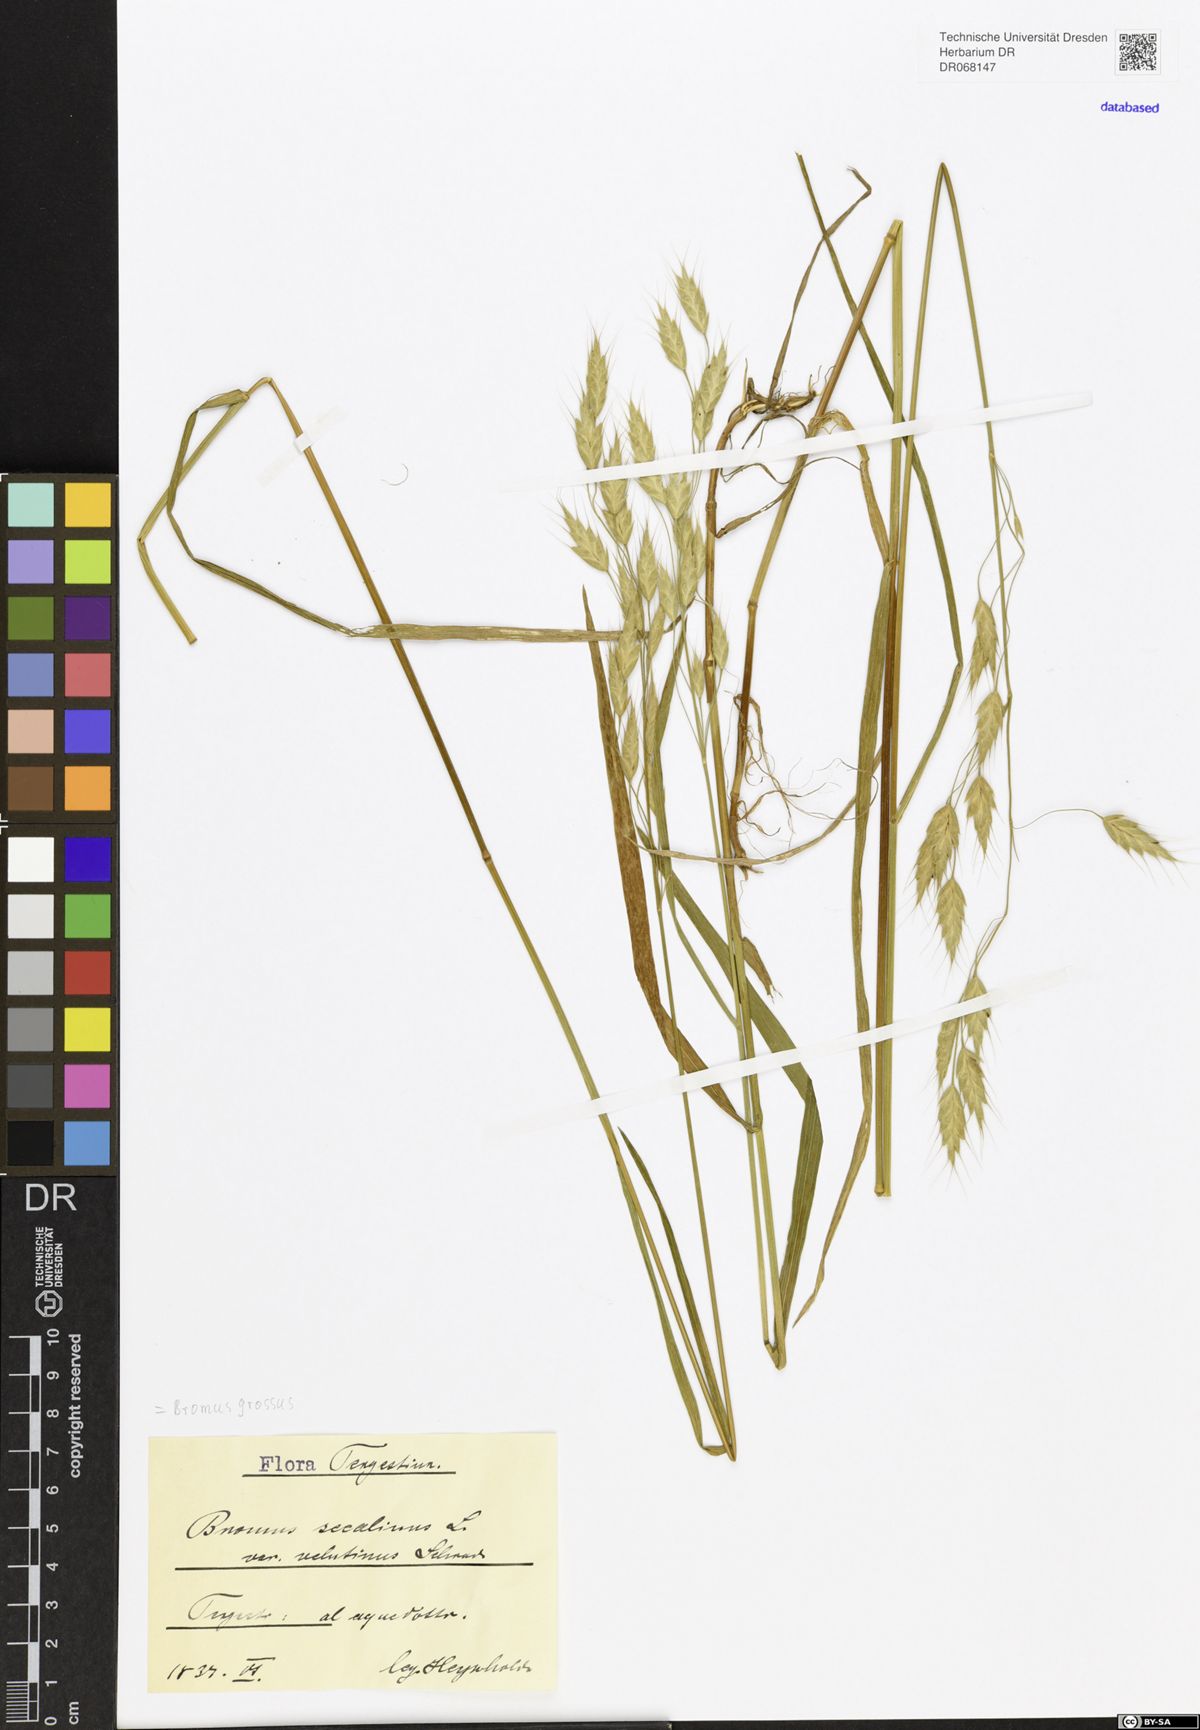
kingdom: Plantae
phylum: Tracheophyta
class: Liliopsida
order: Poales
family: Poaceae
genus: Bromus
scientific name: Bromus grossus
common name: Whiskered brome
